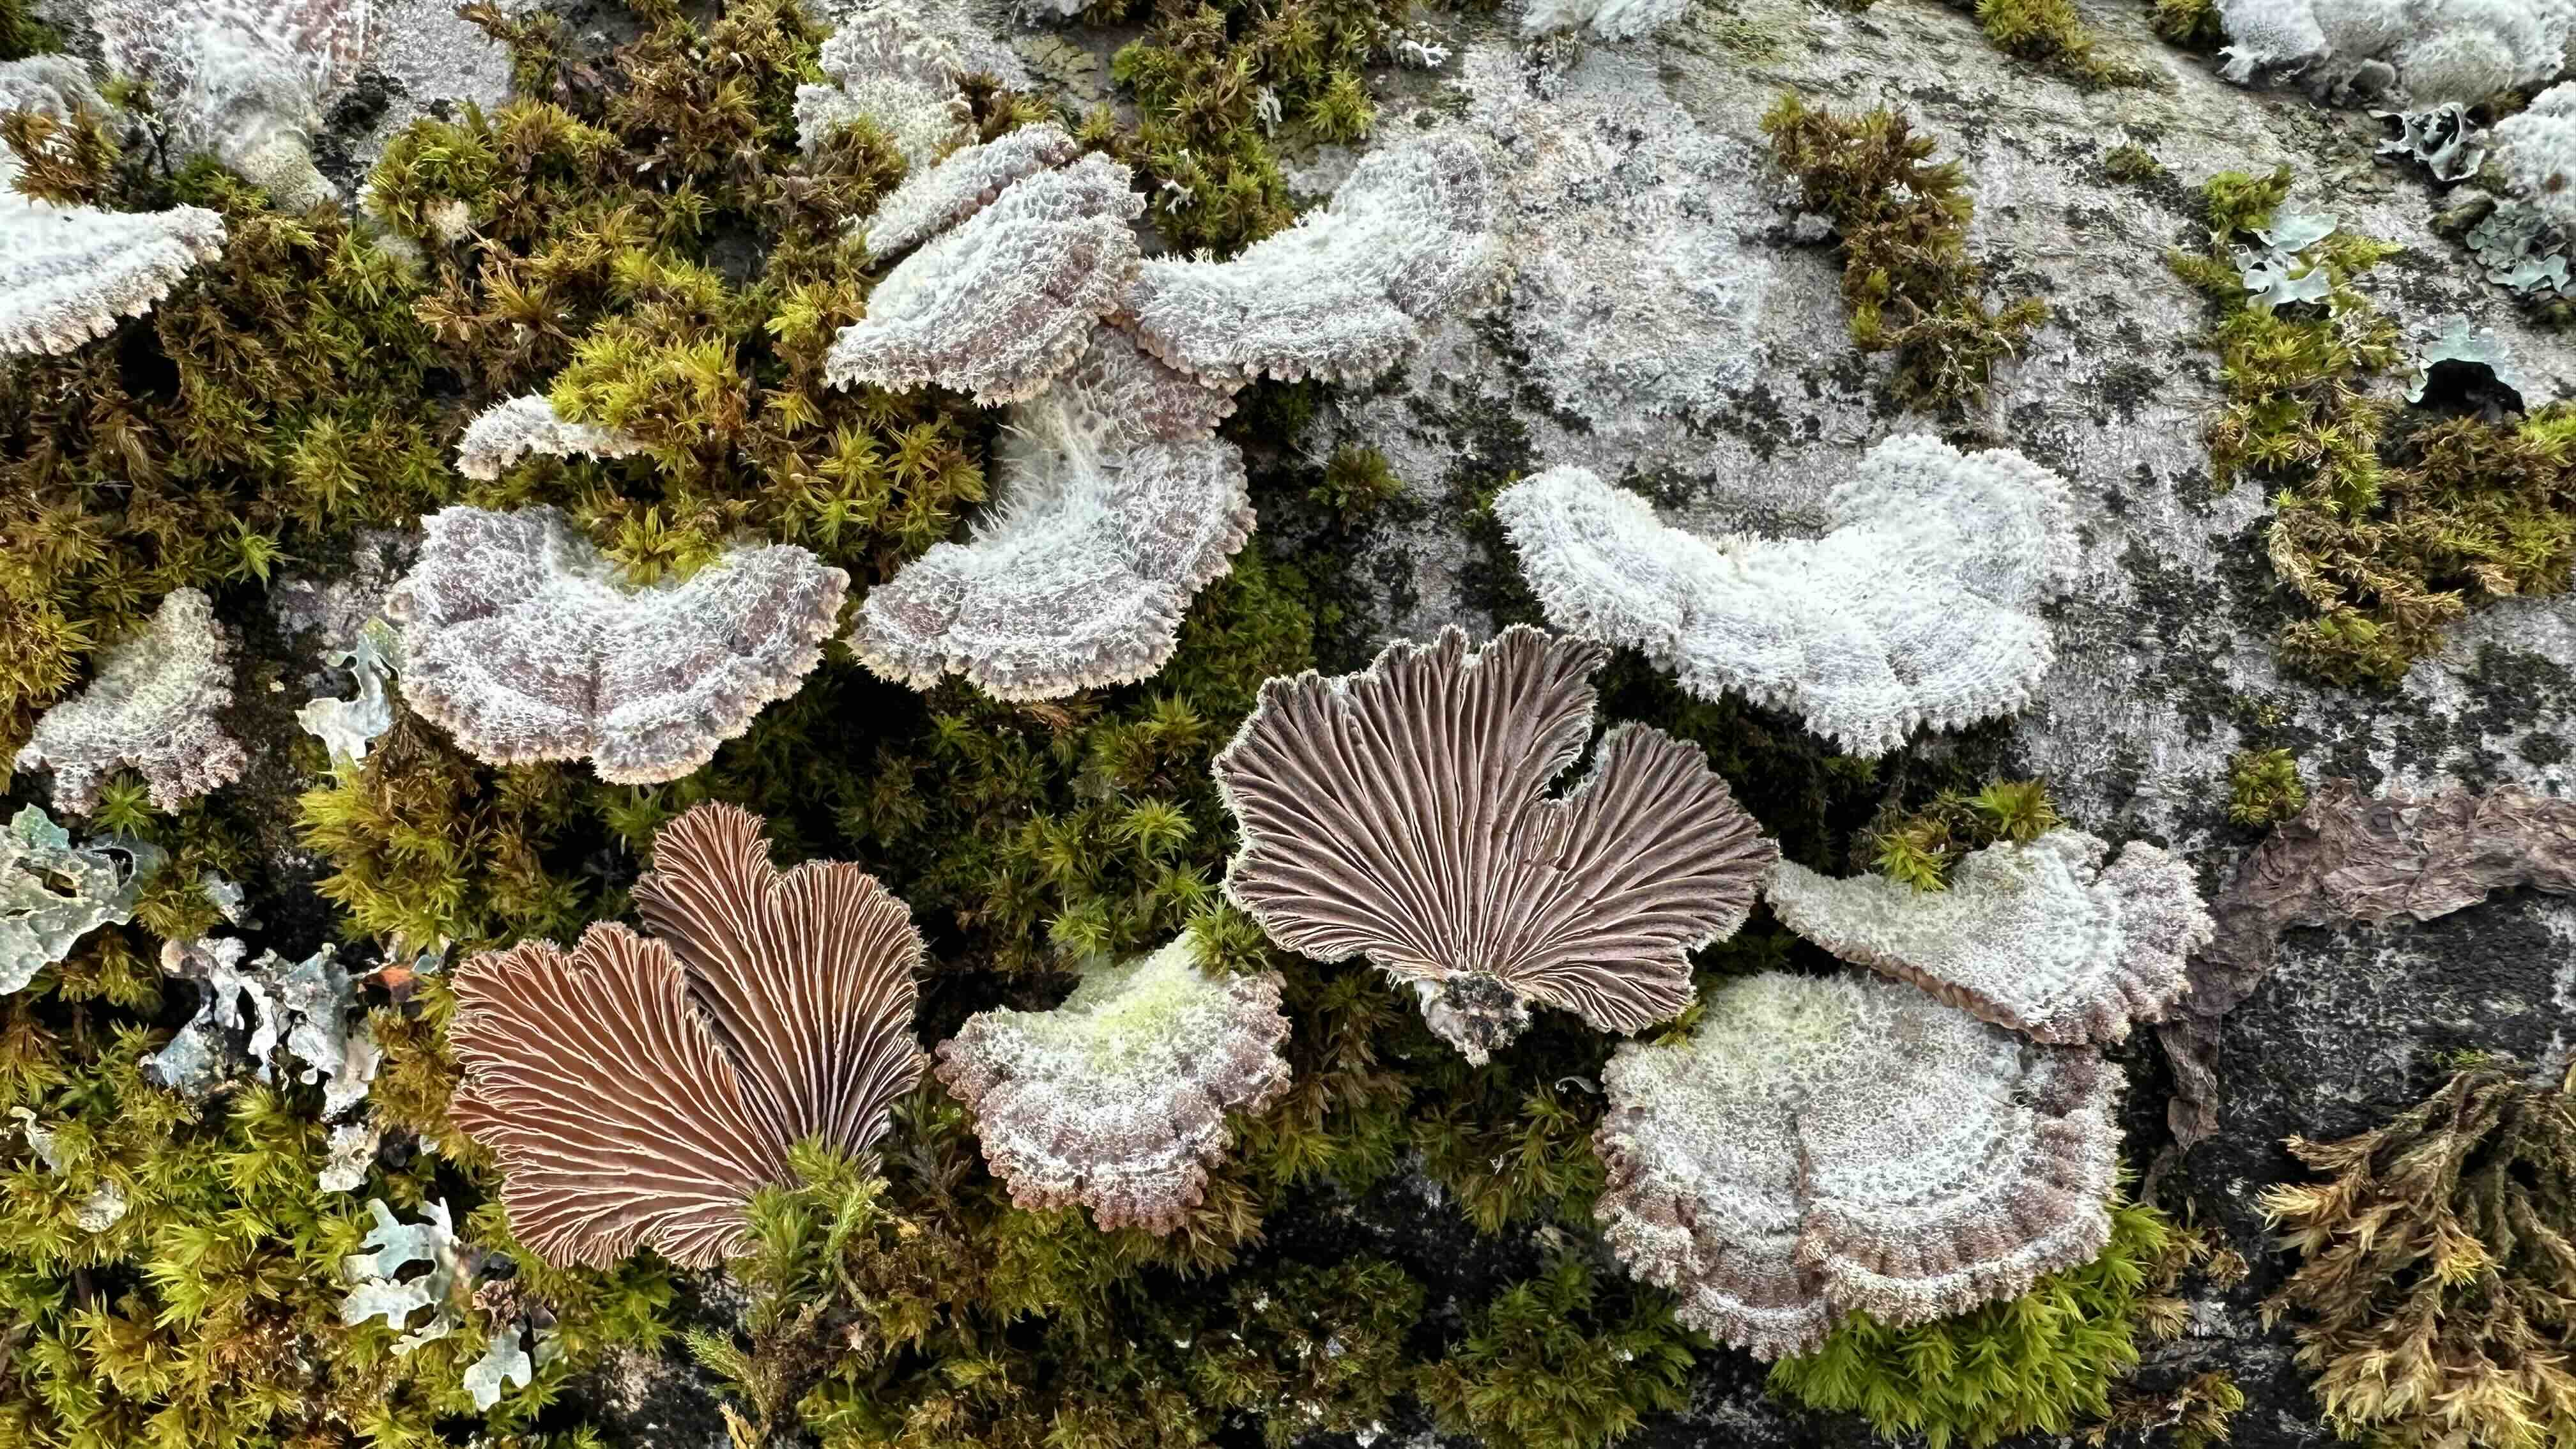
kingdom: Fungi
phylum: Basidiomycota
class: Agaricomycetes
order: Agaricales
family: Schizophyllaceae
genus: Schizophyllum
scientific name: Schizophyllum commune
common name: kløvblad
